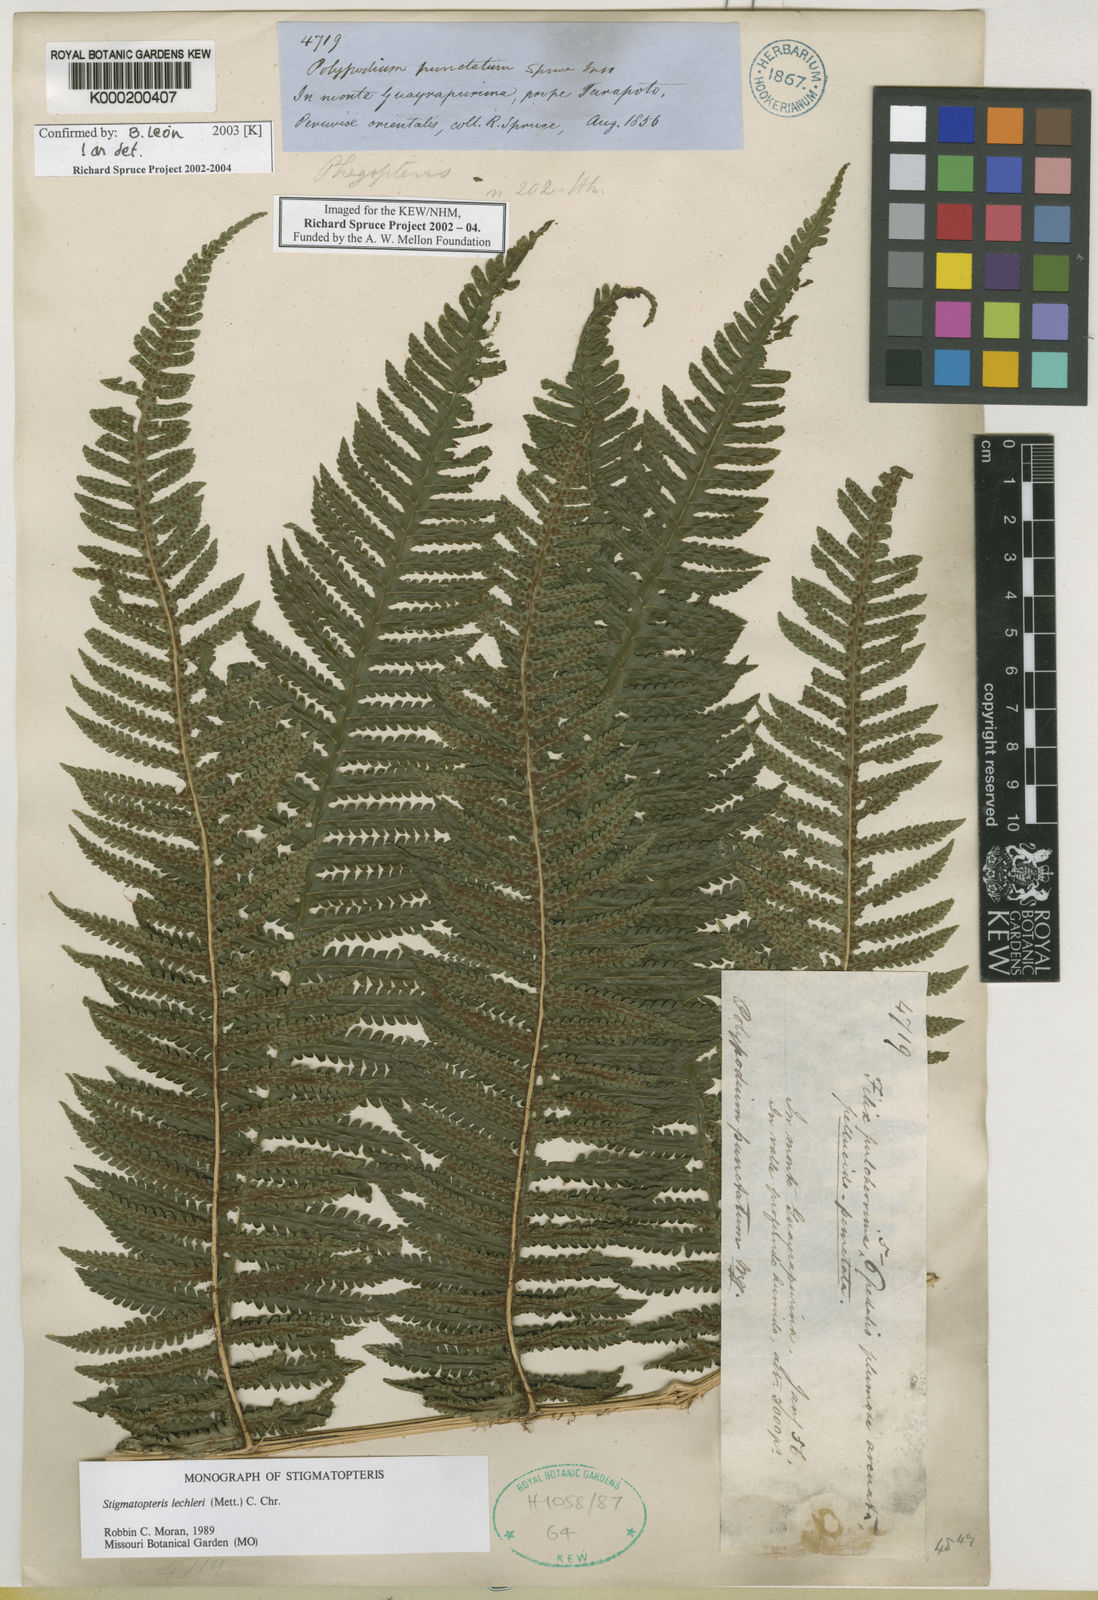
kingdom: Plantae
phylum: Tracheophyta
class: Polypodiopsida
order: Polypodiales
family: Dryopteridaceae
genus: Stigmatopteris
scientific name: Stigmatopteris lechleri
